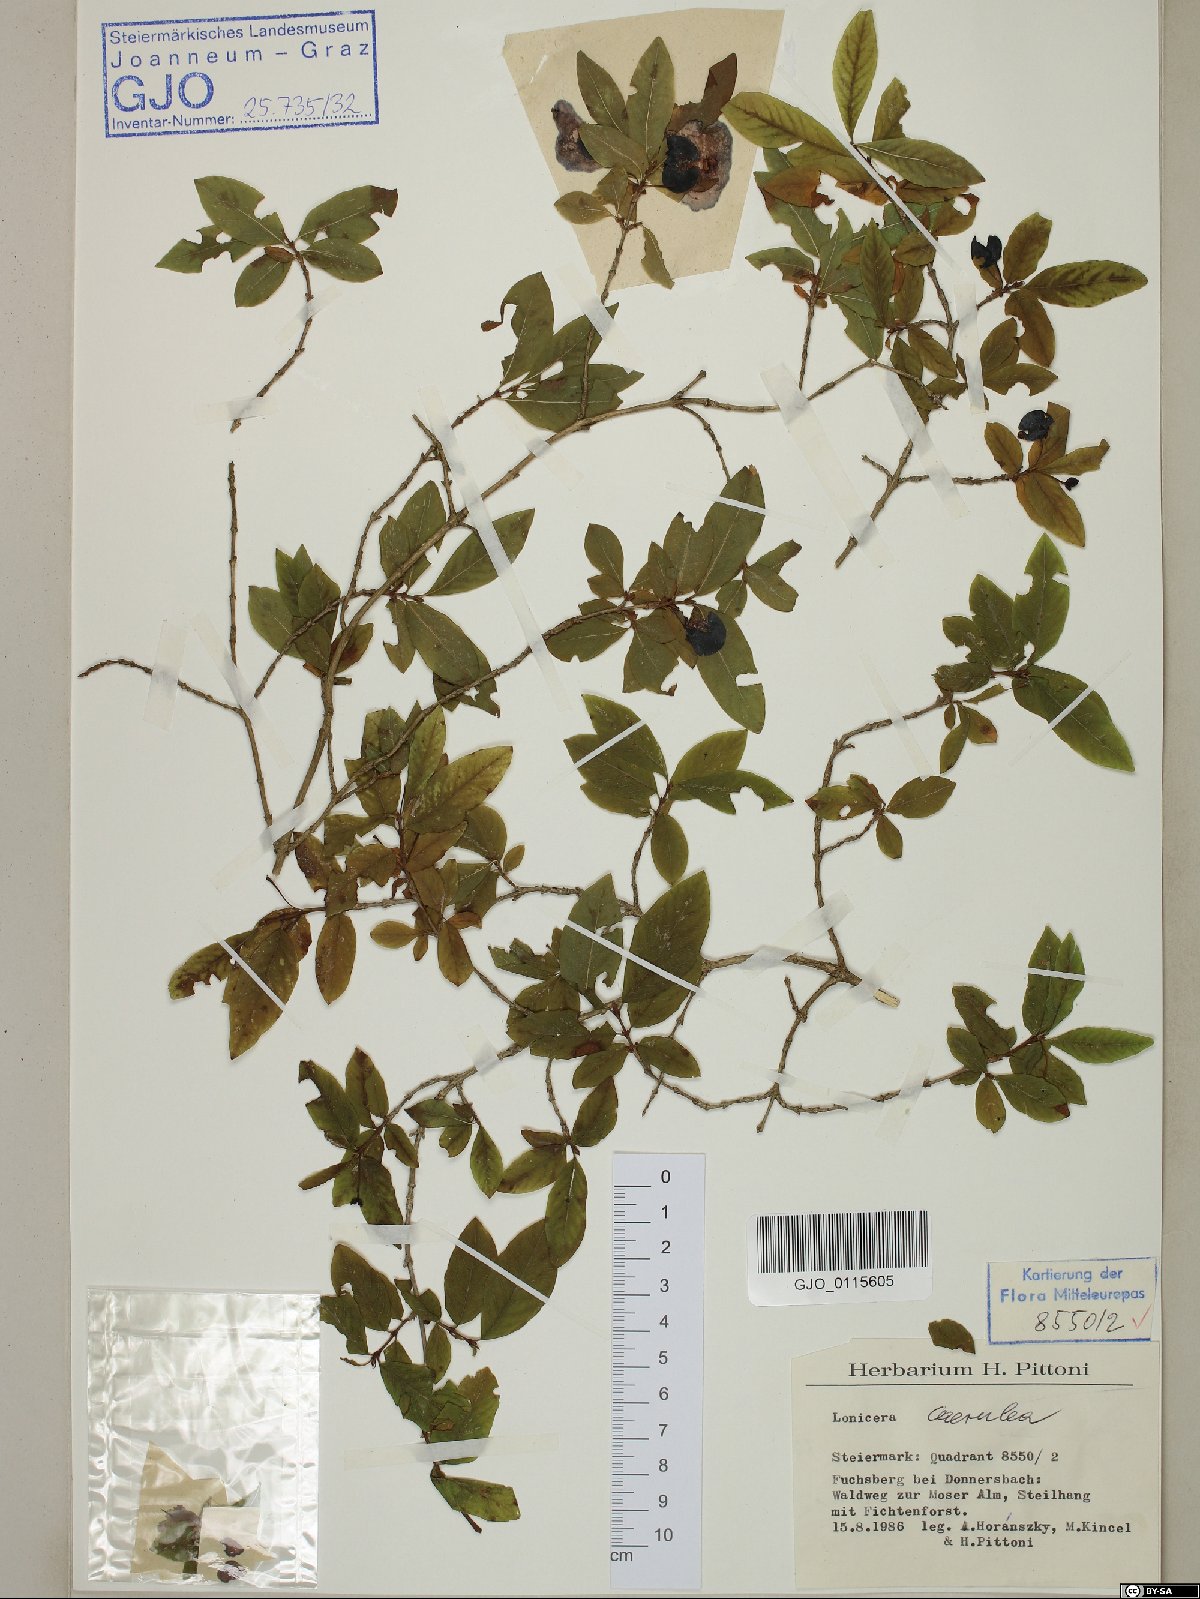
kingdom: Plantae
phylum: Tracheophyta
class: Magnoliopsida
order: Dipsacales
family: Caprifoliaceae
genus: Lonicera
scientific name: Lonicera caerulea
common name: Blue honeysuckle
